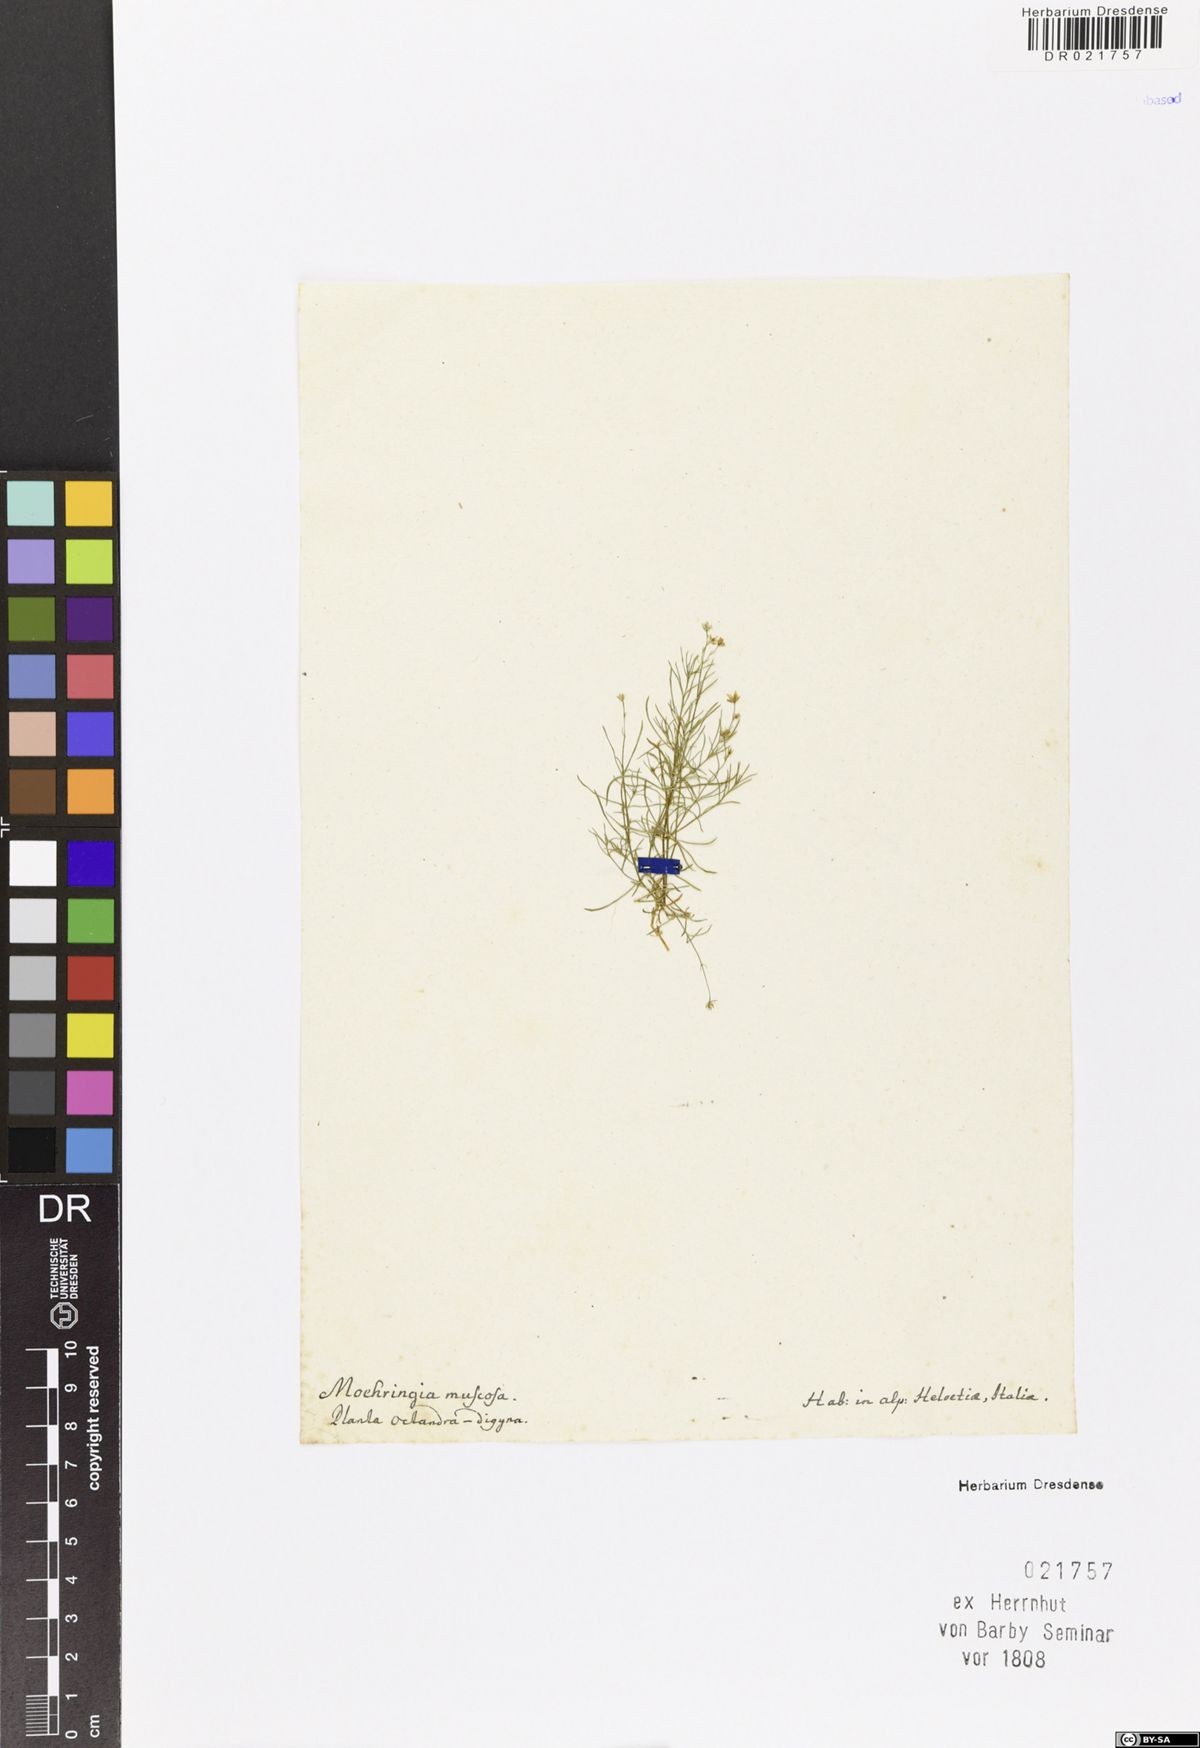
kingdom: Plantae
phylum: Tracheophyta
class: Magnoliopsida
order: Caryophyllales
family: Caryophyllaceae
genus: Moehringia
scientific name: Moehringia muscosa
